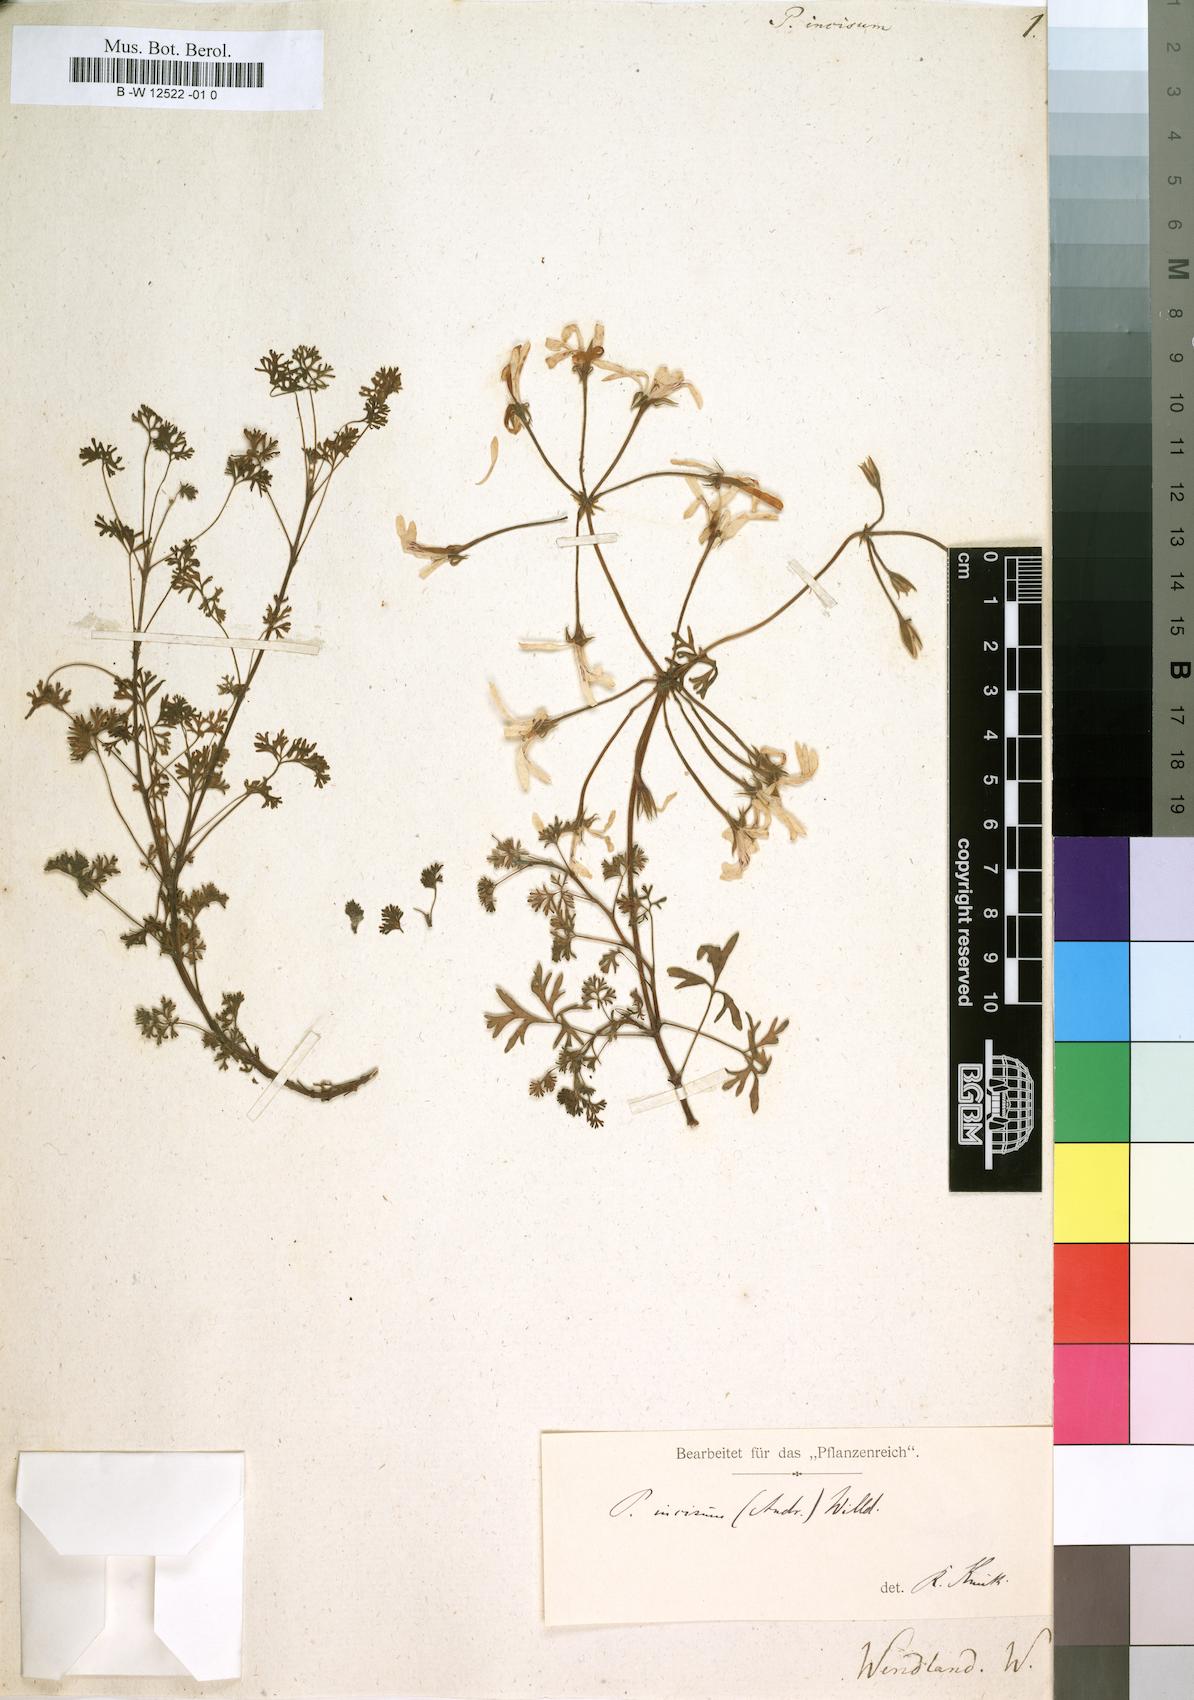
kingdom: Plantae
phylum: Tracheophyta
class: Magnoliopsida
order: Geraniales
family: Geraniaceae
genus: Pelargonium
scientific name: Pelargonium abrotanifolium
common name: Southernwood geranium
